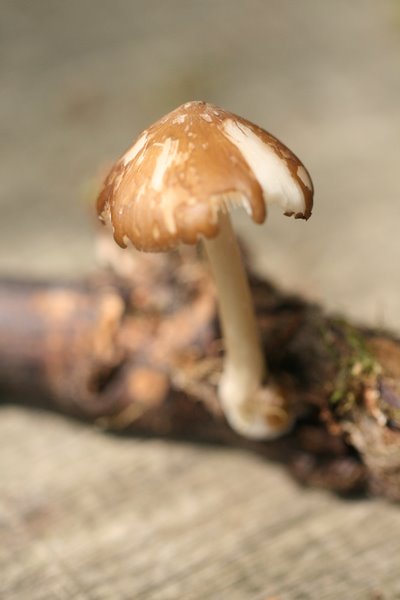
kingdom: Fungi
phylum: Basidiomycota
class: Agaricomycetes
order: Agaricales
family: Porotheleaceae
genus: Hydropodia
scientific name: Hydropodia subalpina
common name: vår-fnugfod
